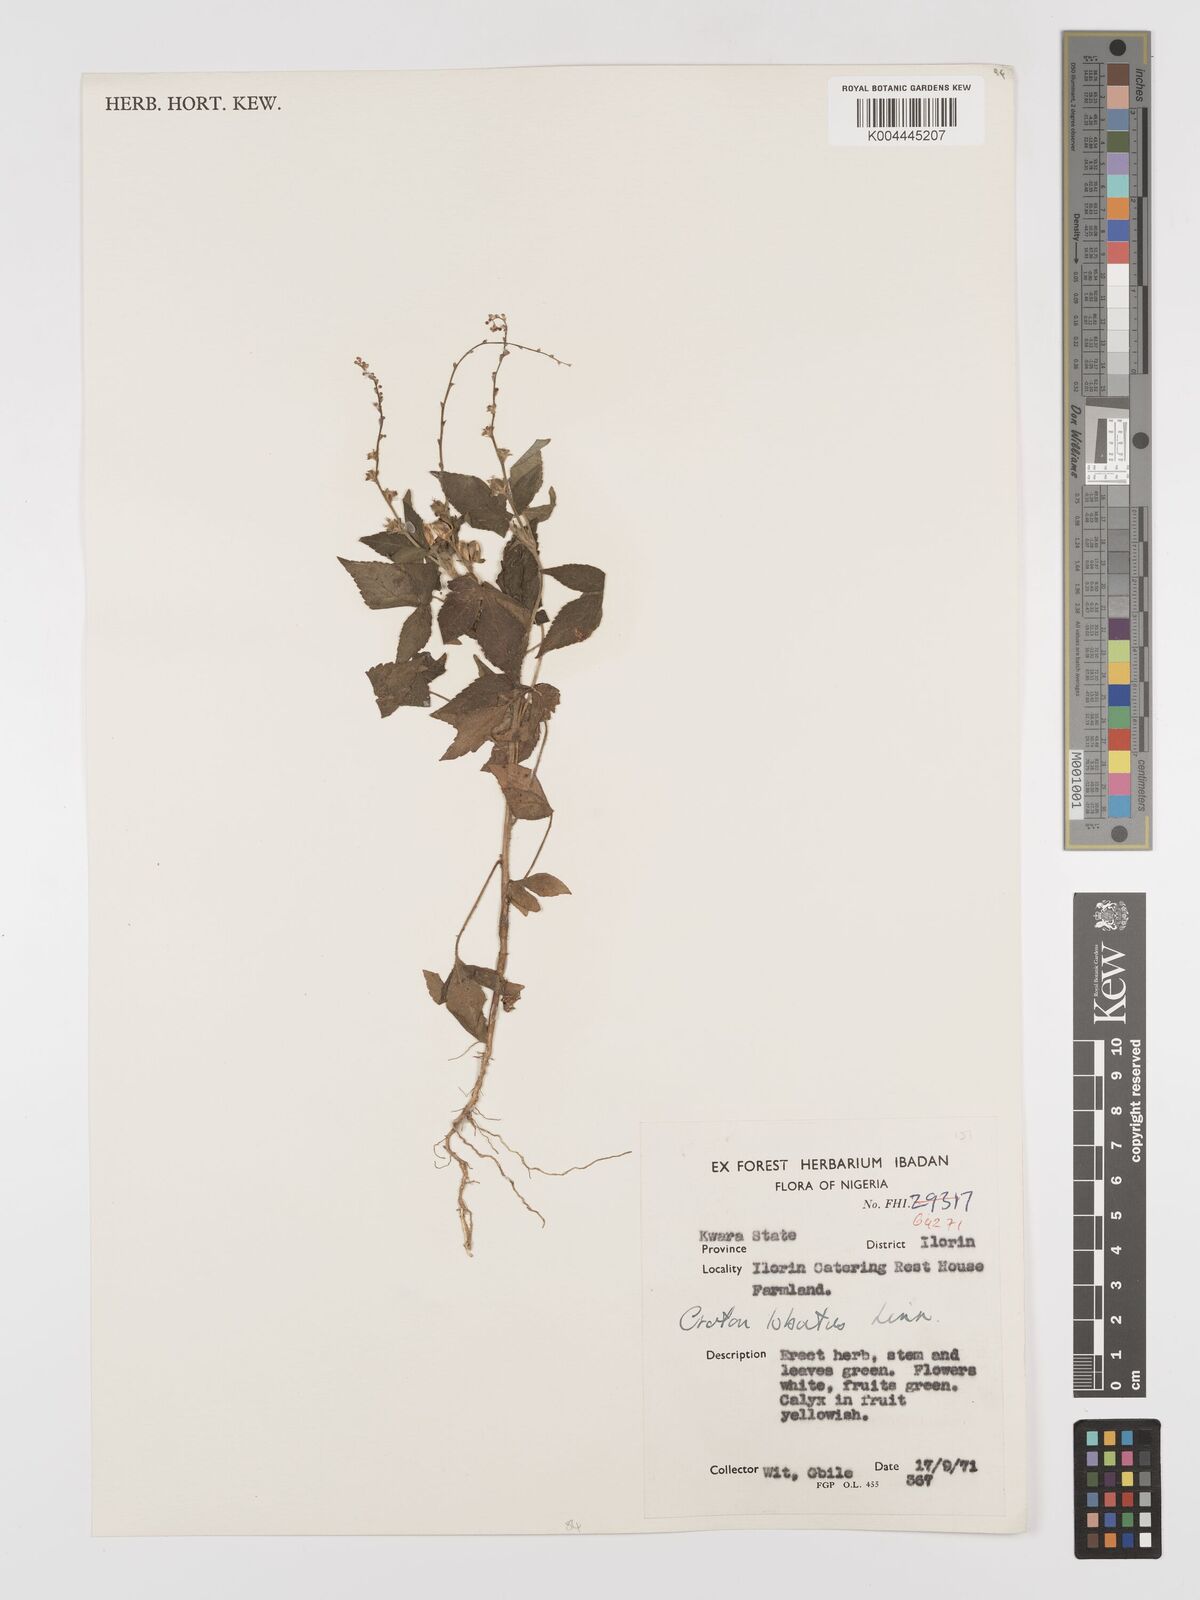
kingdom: Plantae
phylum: Tracheophyta
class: Magnoliopsida
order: Malpighiales
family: Euphorbiaceae
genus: Astraea
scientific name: Astraea lobata
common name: Lobed croton
